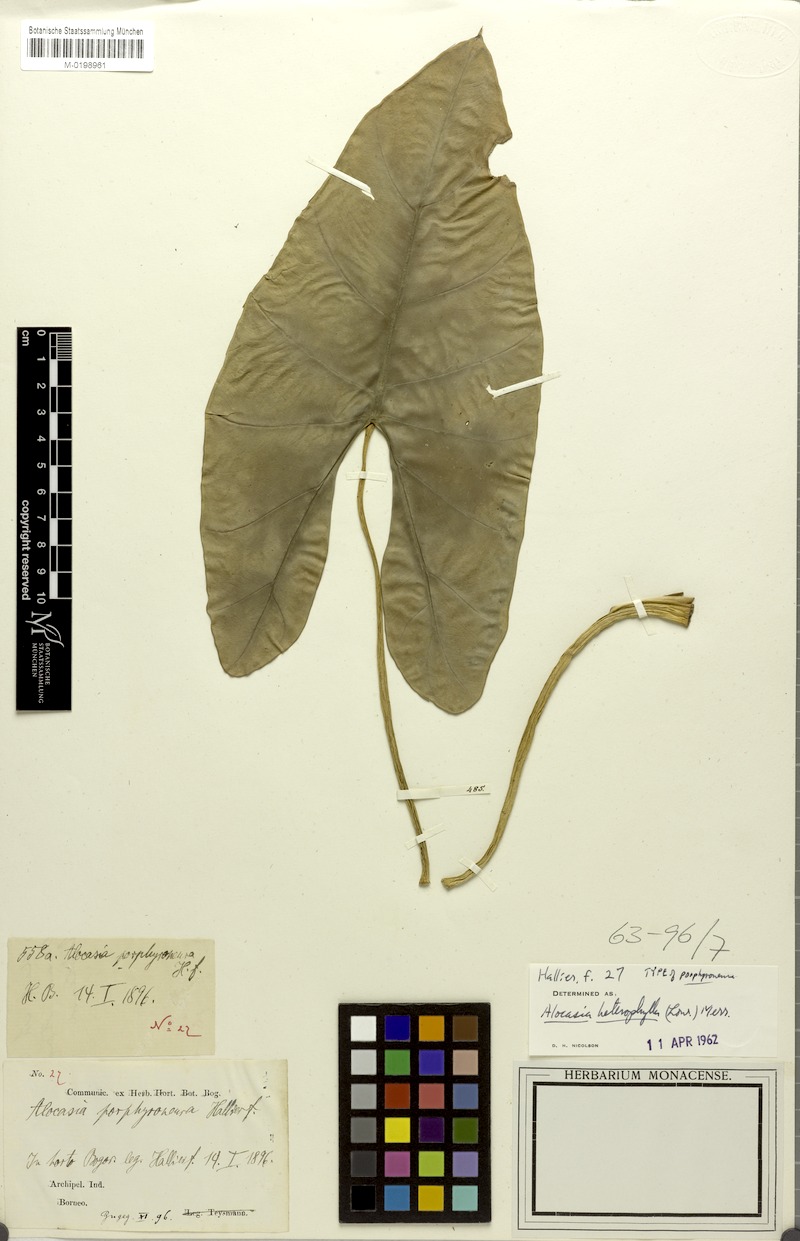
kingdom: Plantae
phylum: Tracheophyta
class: Liliopsida
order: Alismatales
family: Araceae
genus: Alocasia
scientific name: Alocasia heterophylla
